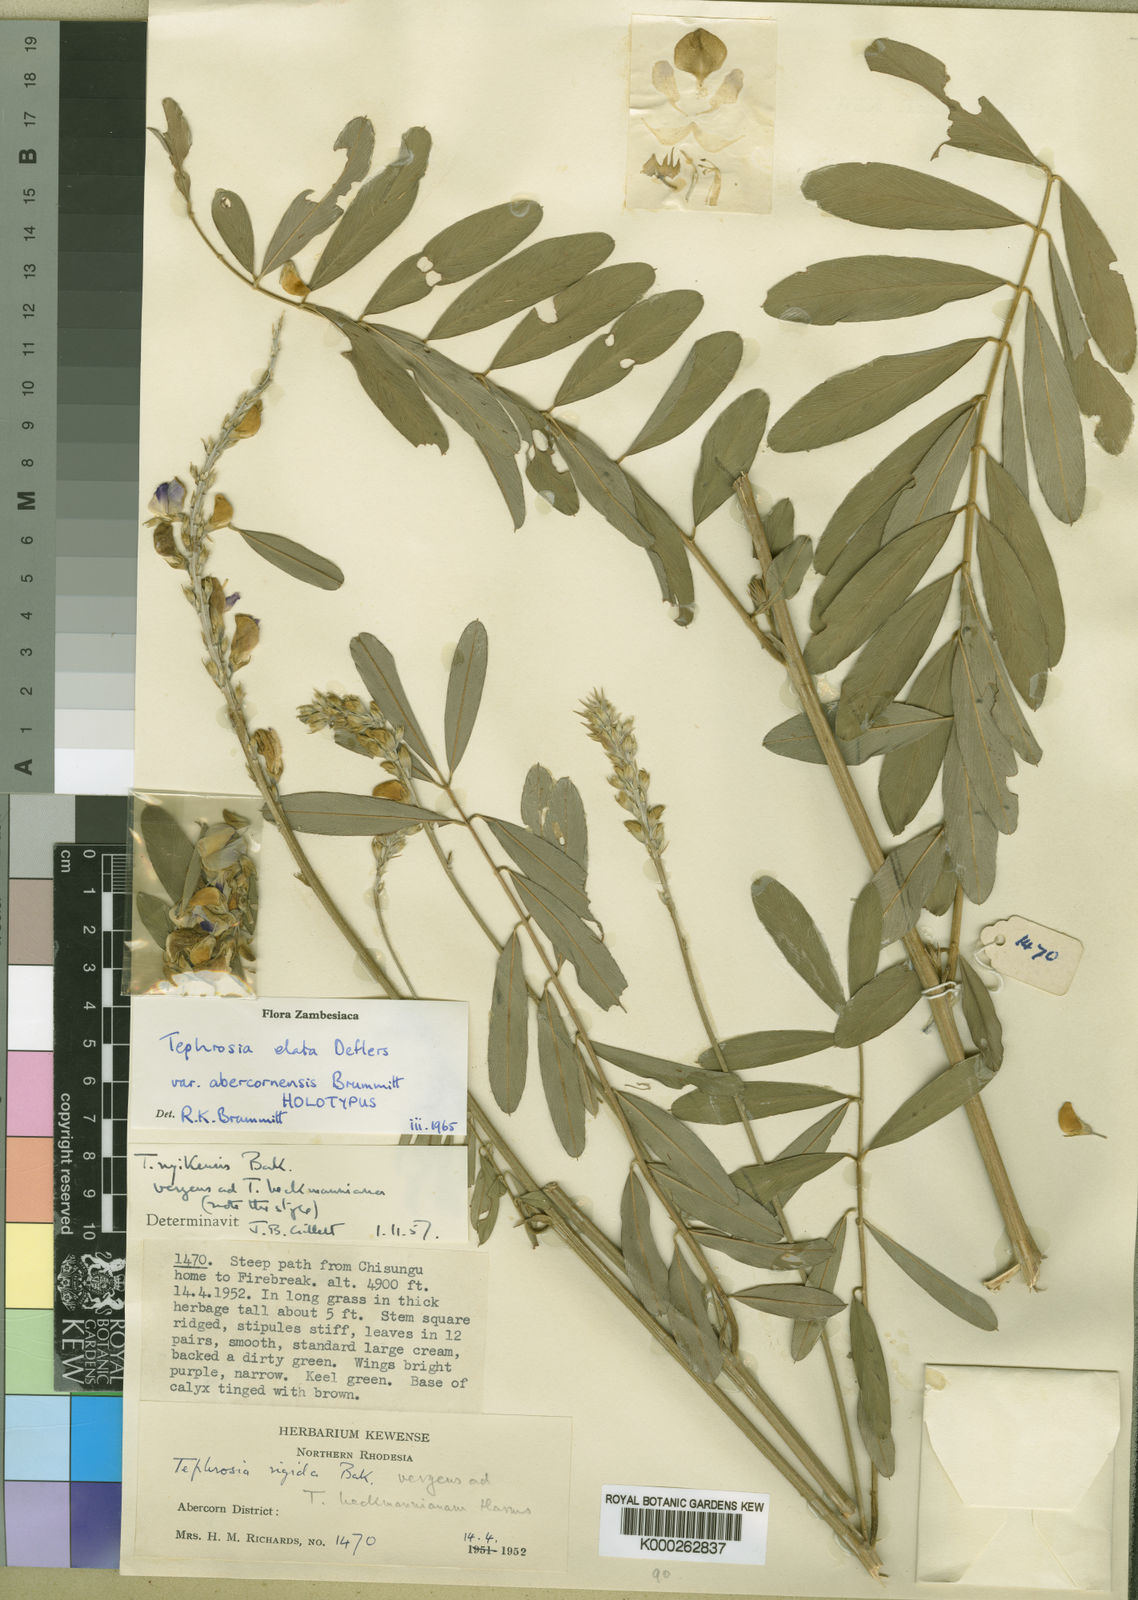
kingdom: Plantae
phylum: Tracheophyta
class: Magnoliopsida
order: Fabales
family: Fabaceae
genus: Tephrosia
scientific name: Tephrosia elata
